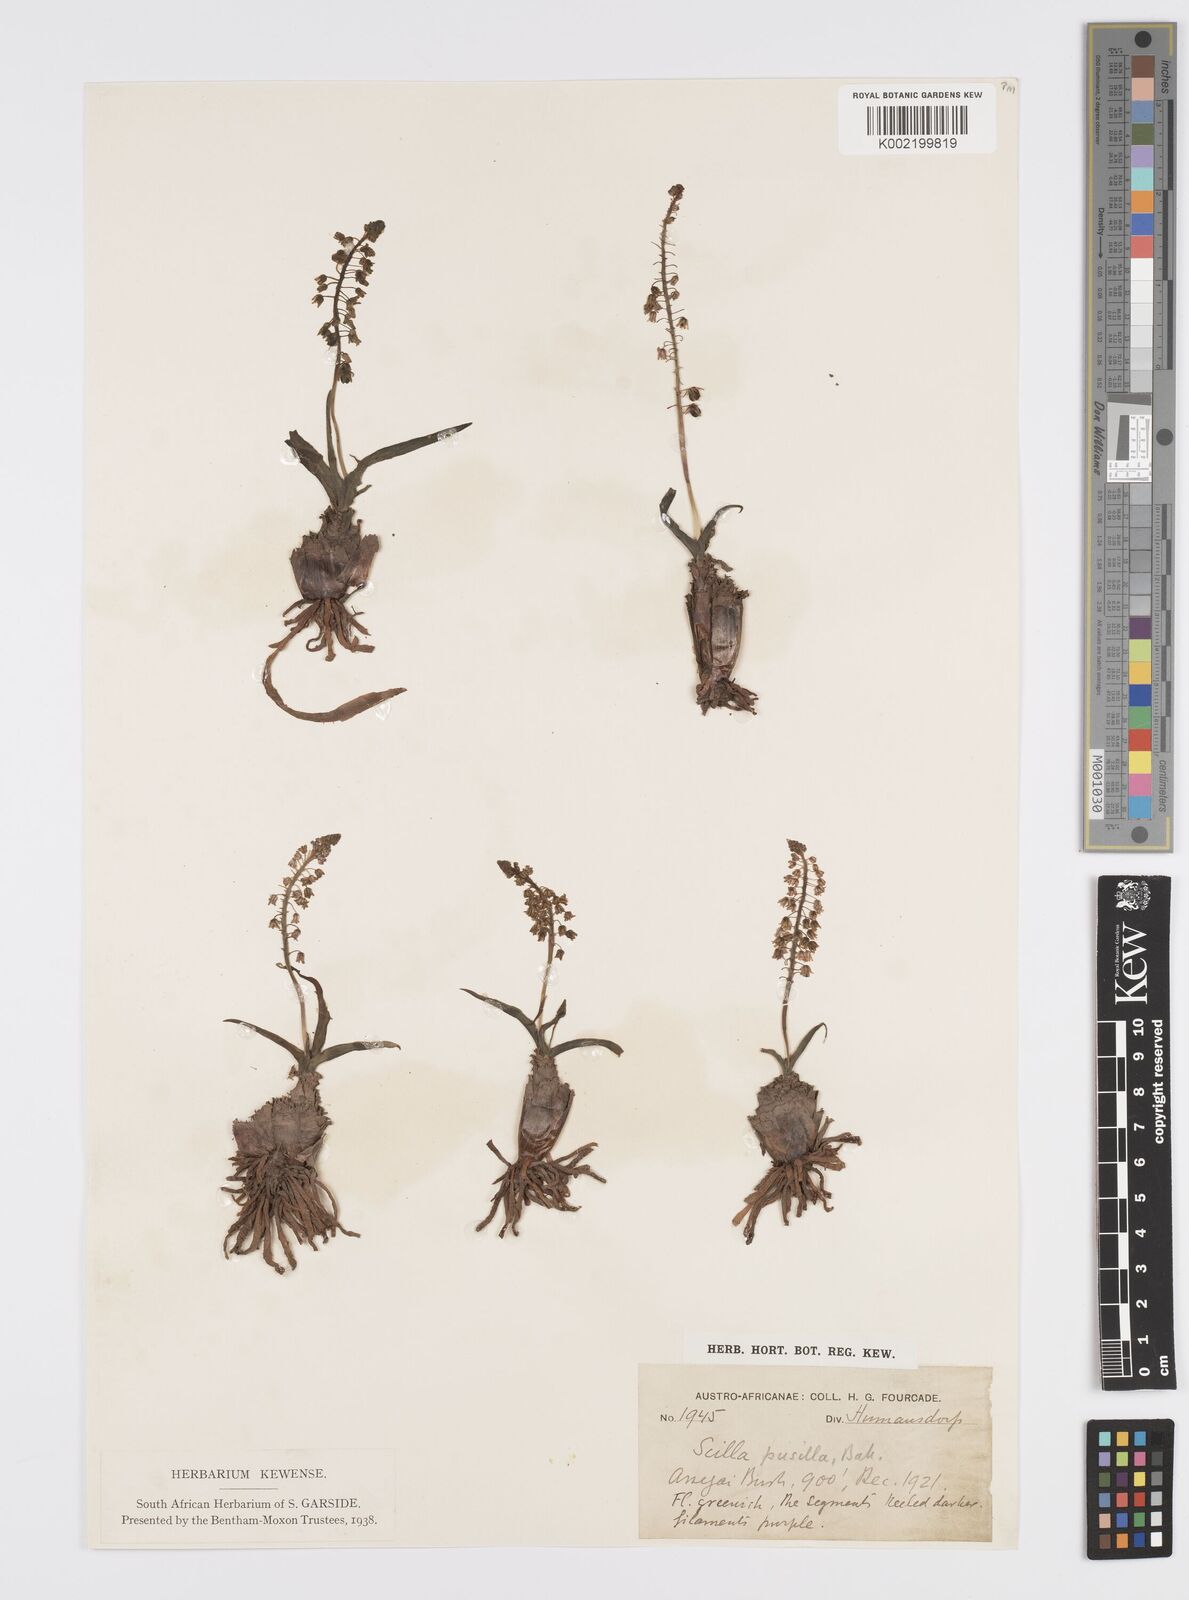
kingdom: Plantae
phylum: Tracheophyta
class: Liliopsida
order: Asparagales
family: Asparagaceae
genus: Ledebouria
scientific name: Ledebouria cooperi
